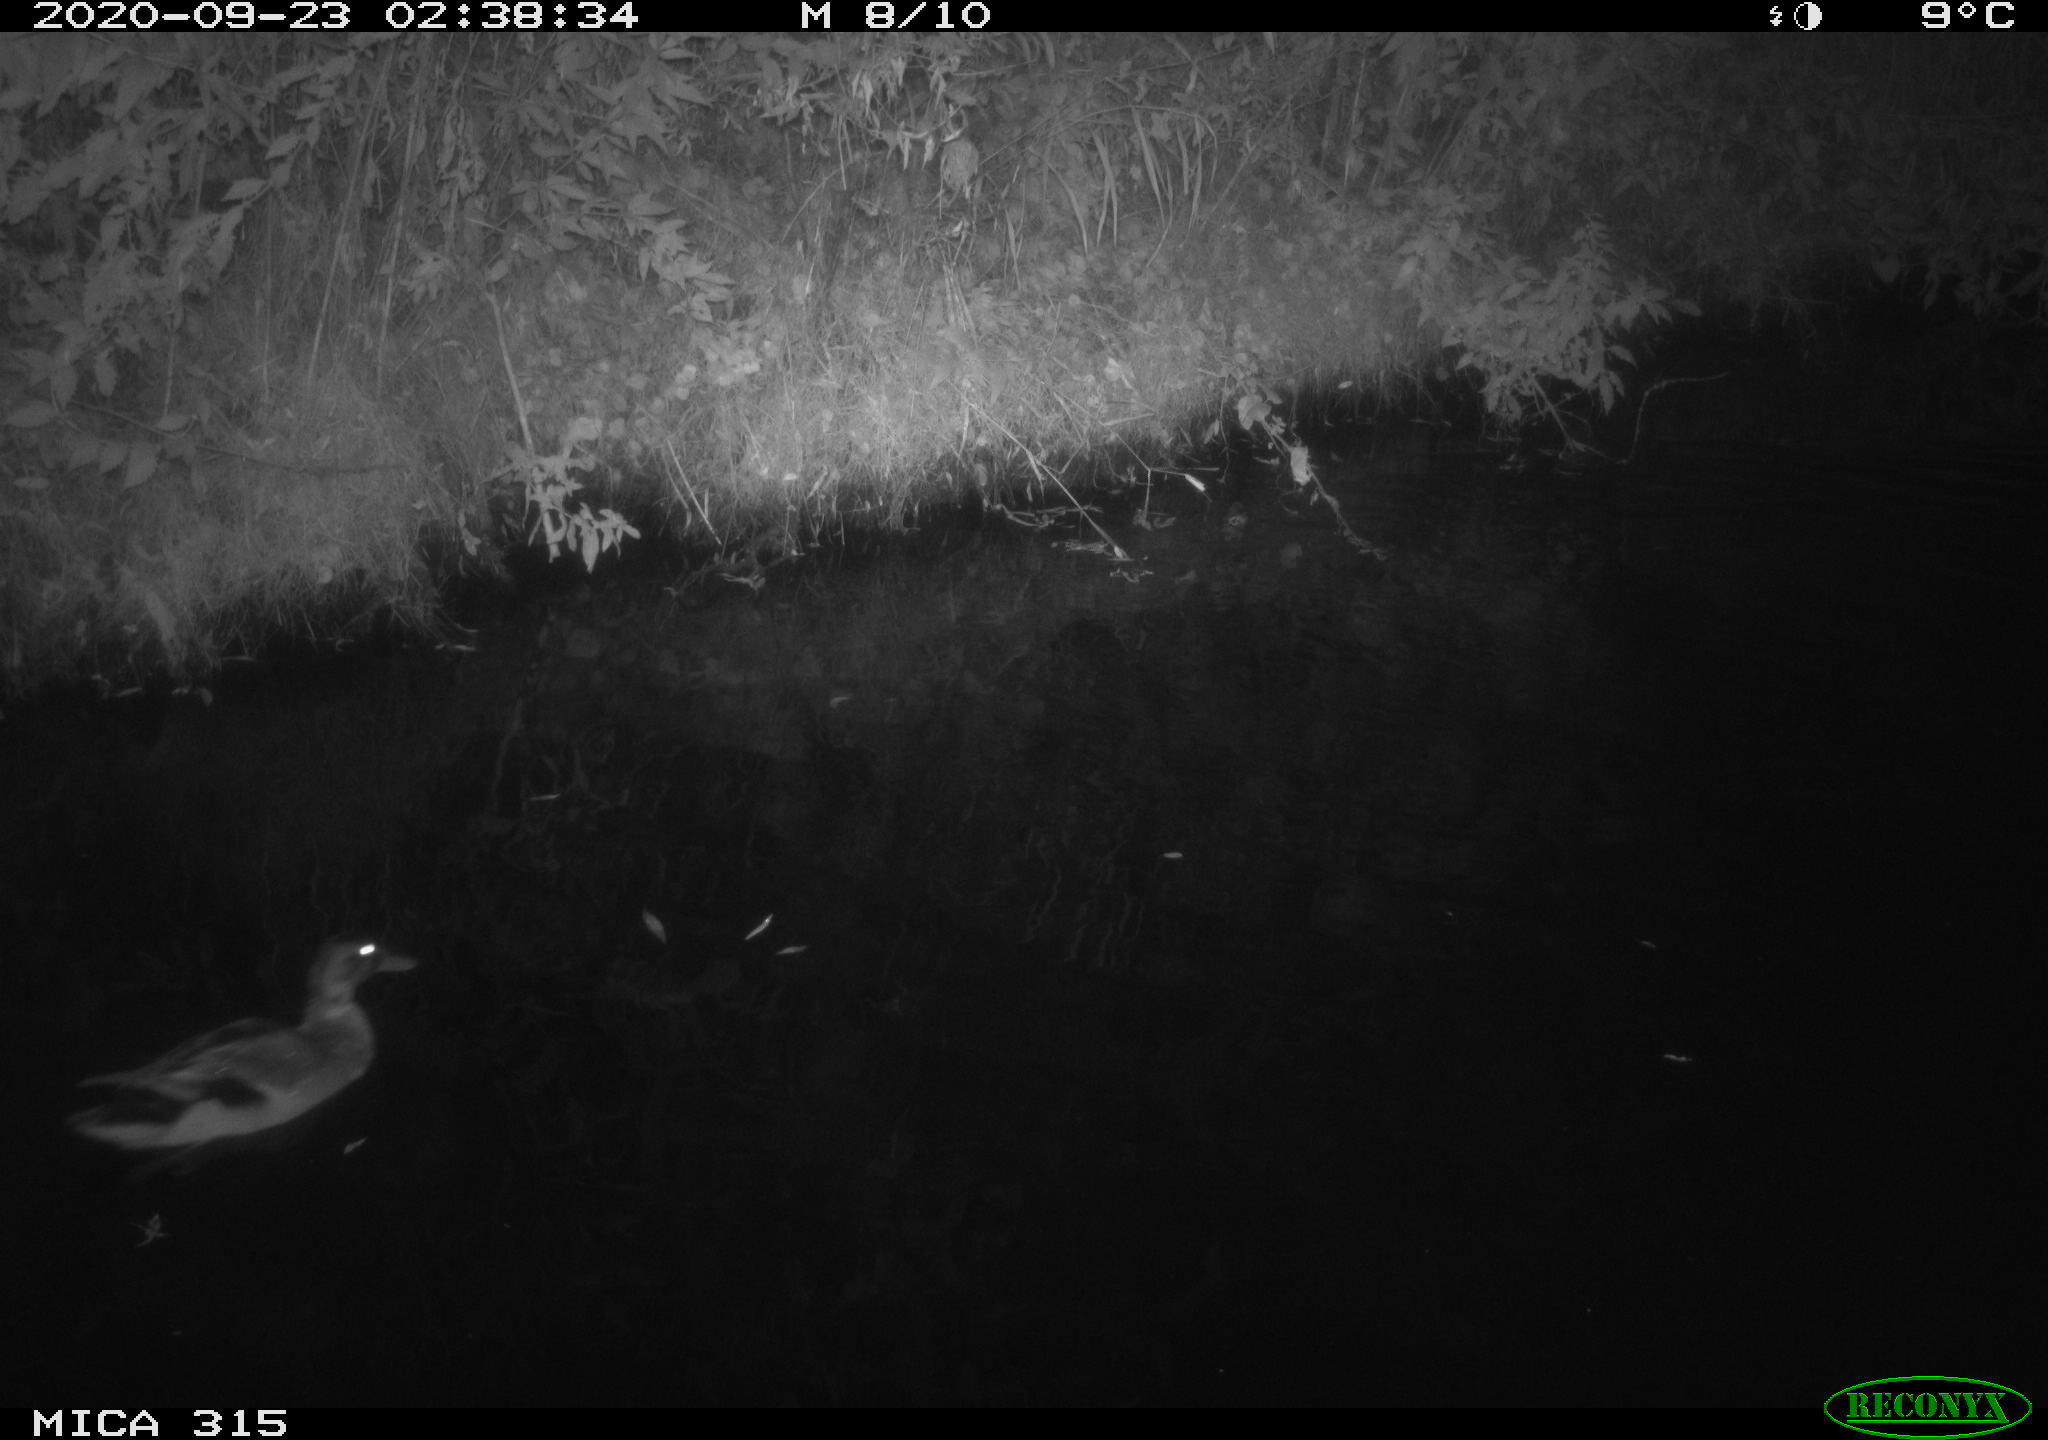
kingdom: Animalia
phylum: Chordata
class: Aves
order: Anseriformes
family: Anatidae
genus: Anas
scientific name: Anas platyrhynchos
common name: Mallard
